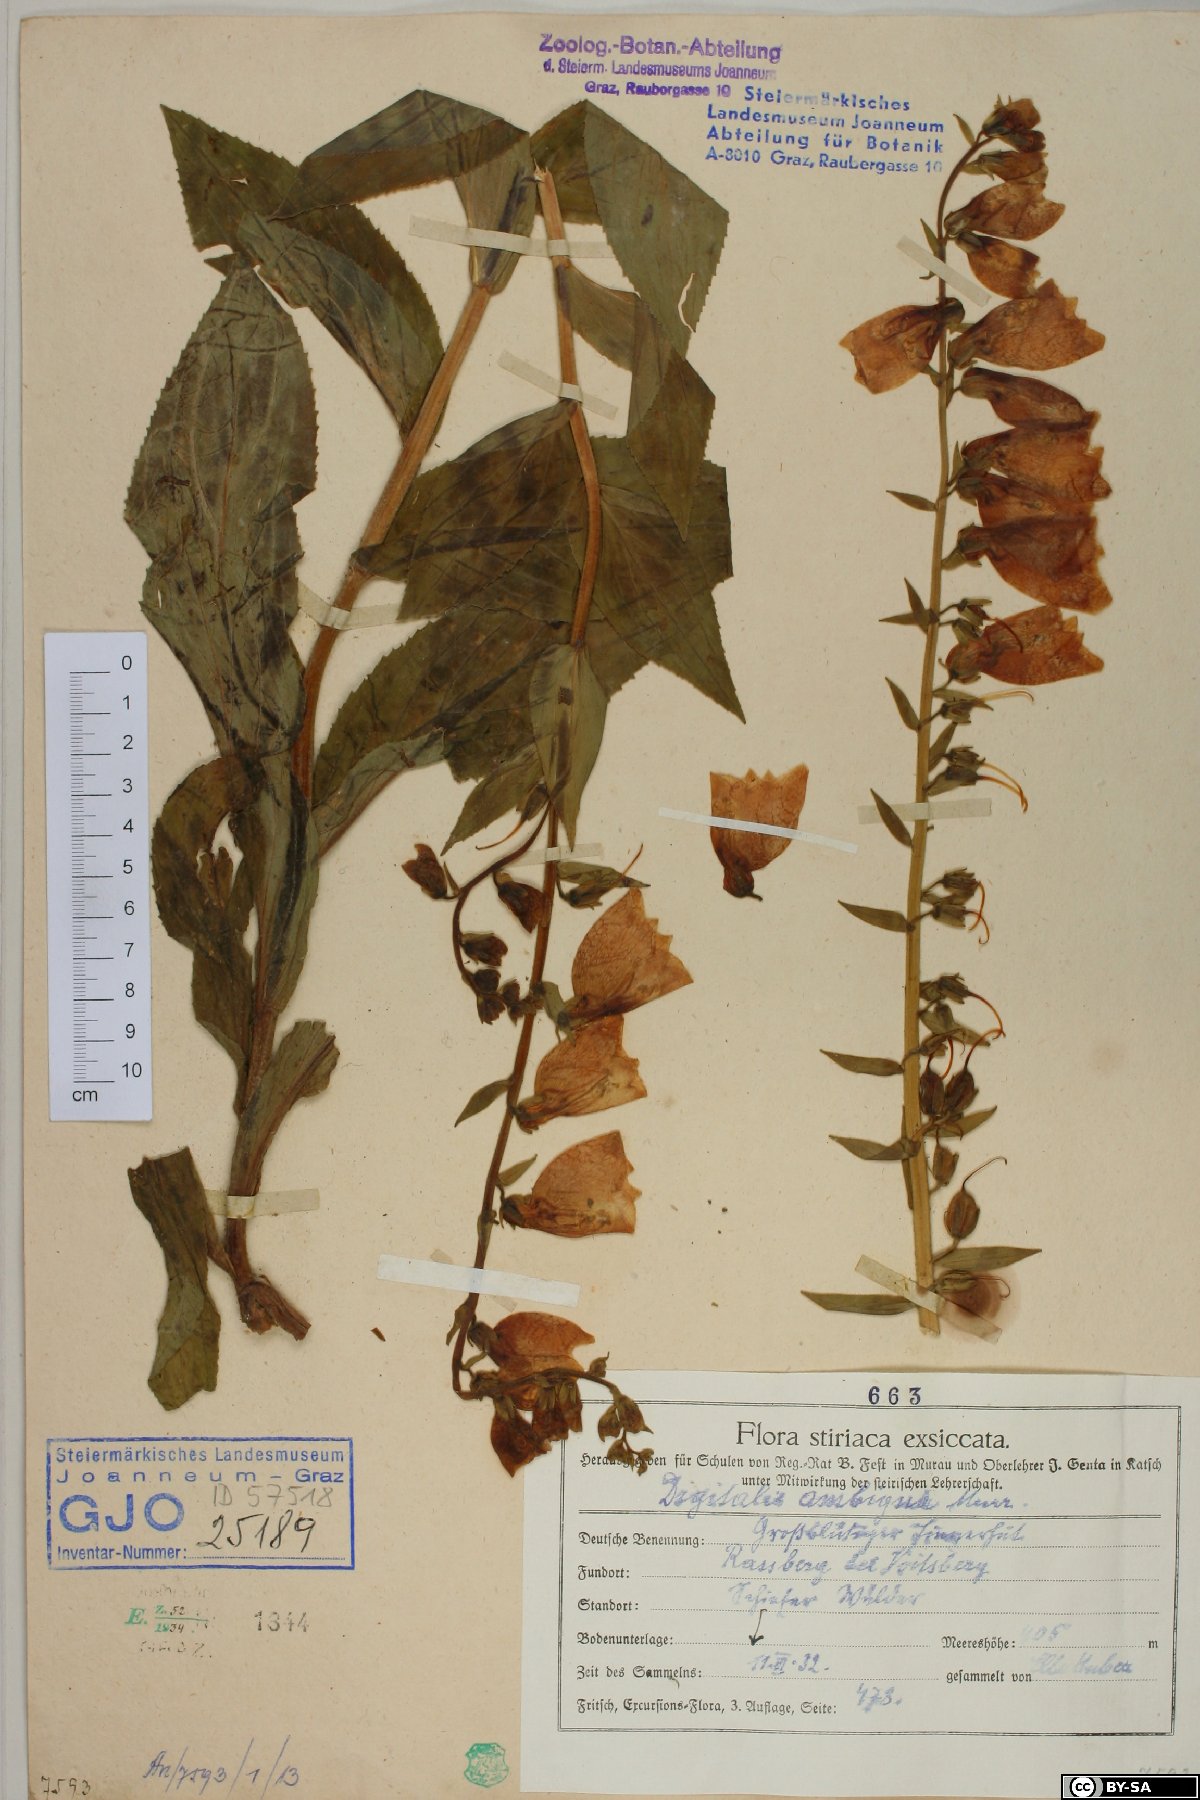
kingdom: Plantae
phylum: Tracheophyta
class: Magnoliopsida
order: Lamiales
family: Plantaginaceae
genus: Digitalis
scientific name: Digitalis grandiflora
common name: Yellow foxglove
